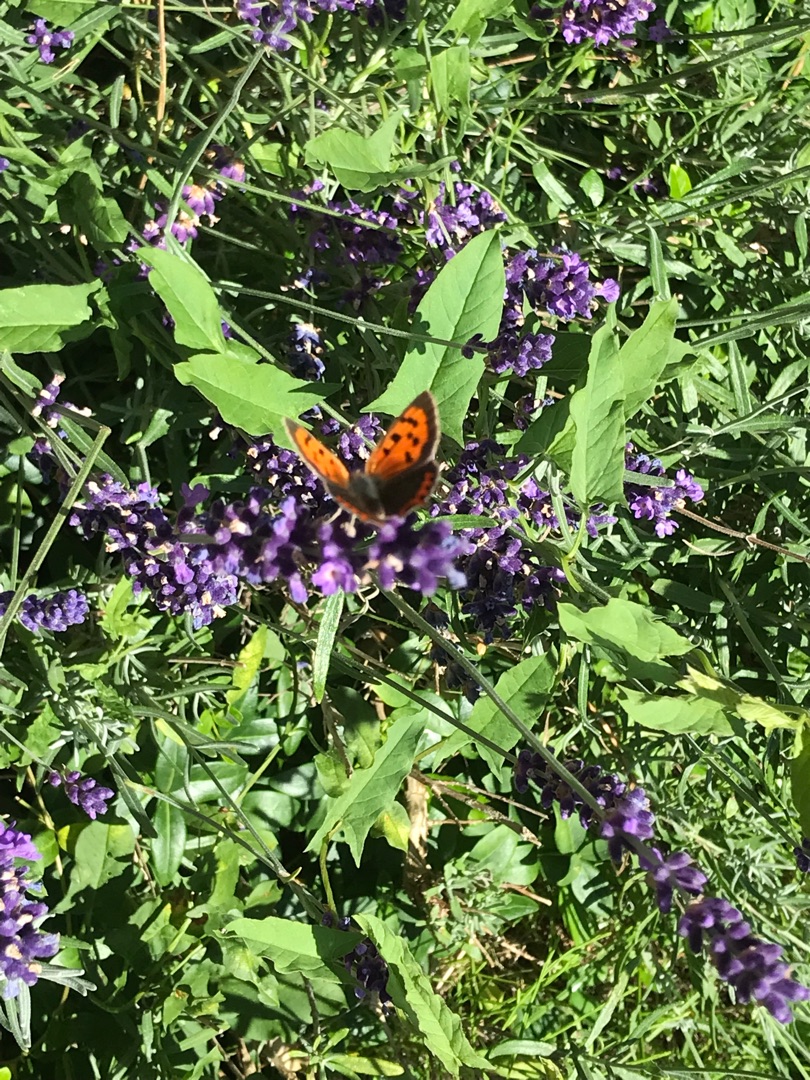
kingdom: Animalia
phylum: Arthropoda
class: Insecta
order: Lepidoptera
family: Lycaenidae
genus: Lycaena
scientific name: Lycaena phlaeas
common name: Lille ildfugl
